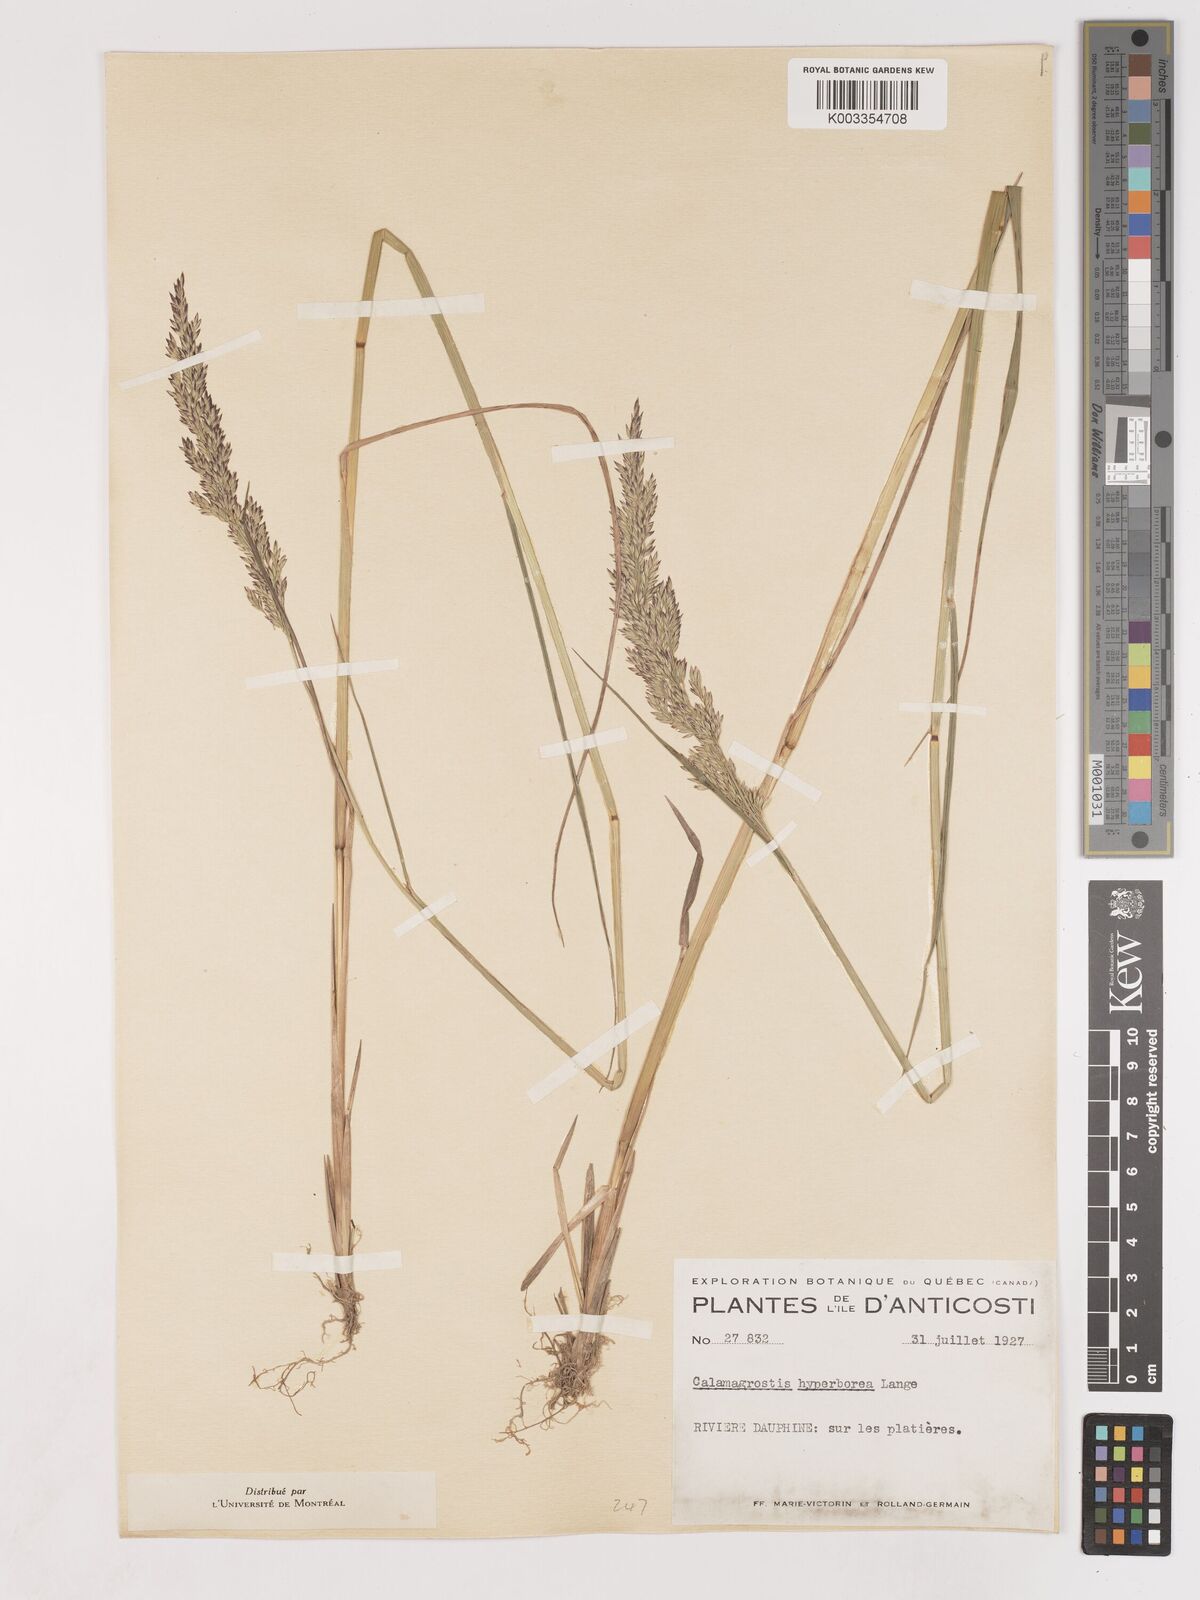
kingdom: Plantae
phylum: Tracheophyta
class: Liliopsida
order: Poales
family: Poaceae
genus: Cinnagrostis
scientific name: Cinnagrostis recta
